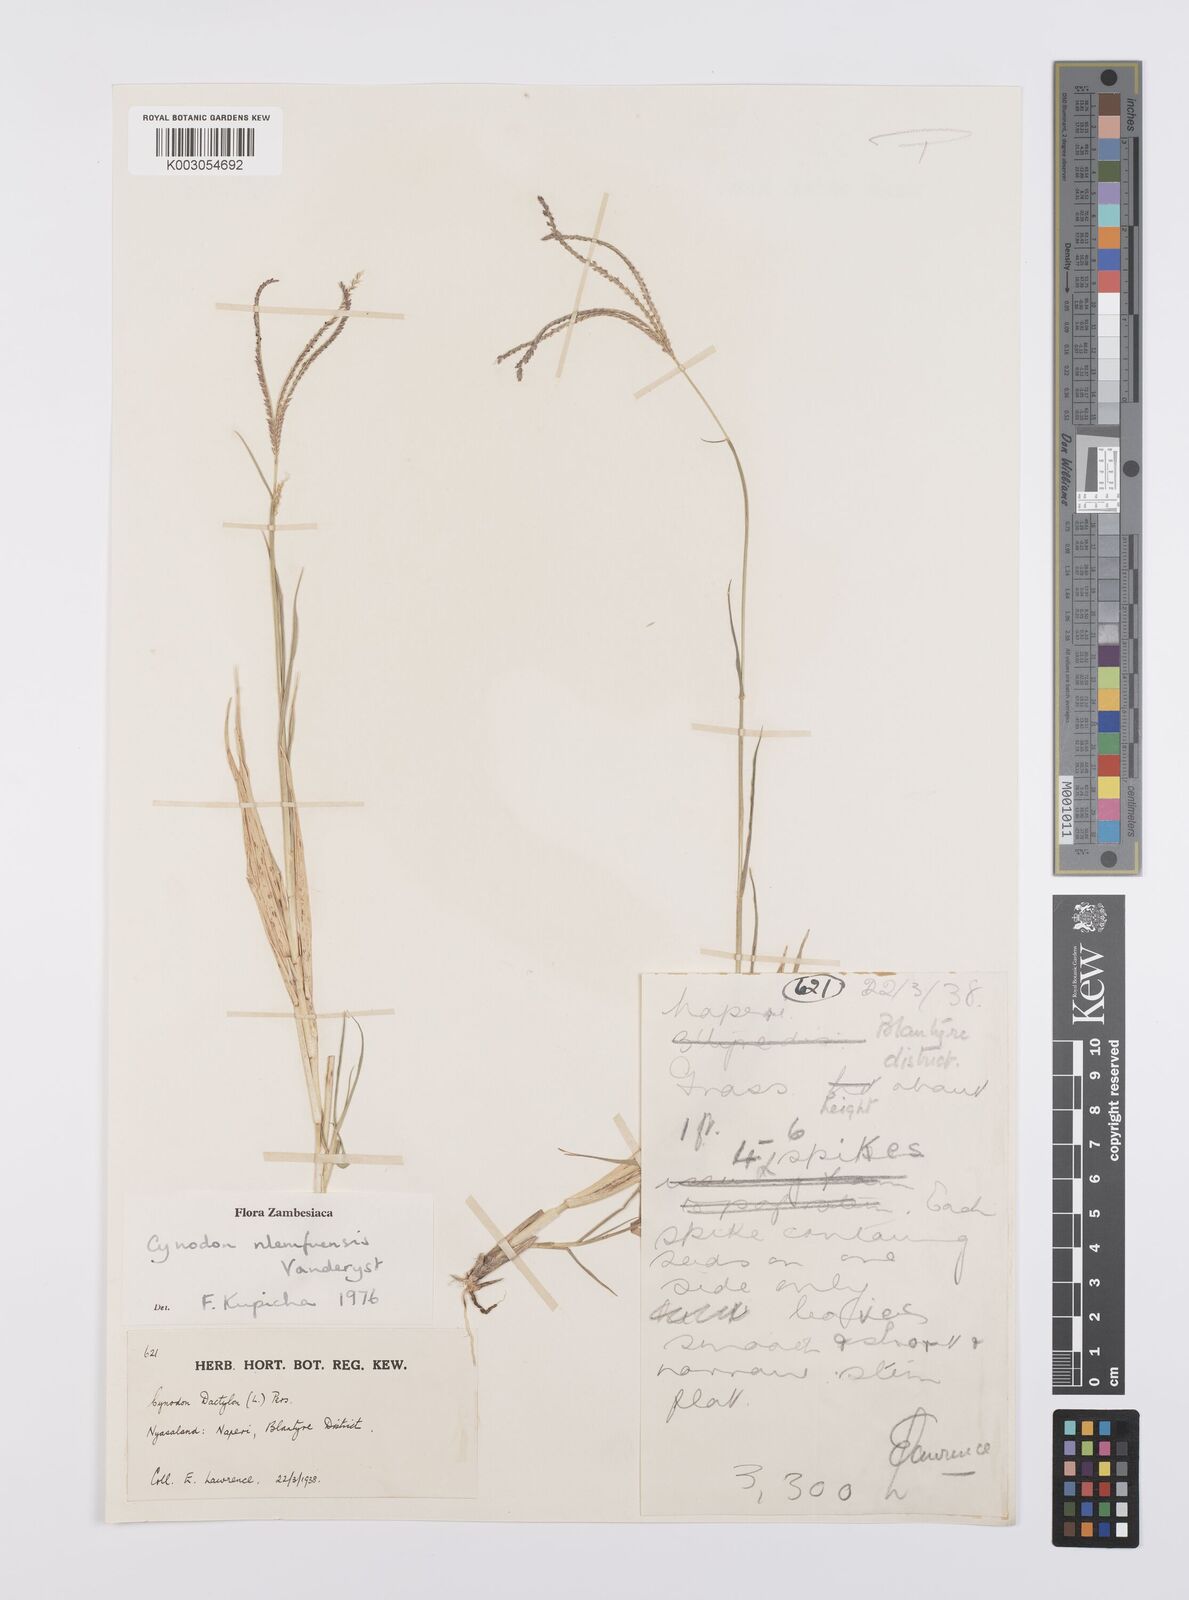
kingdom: Plantae
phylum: Tracheophyta
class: Liliopsida
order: Poales
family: Poaceae
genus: Cynodon
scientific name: Cynodon nlemfuensis
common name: African bermudagrass
